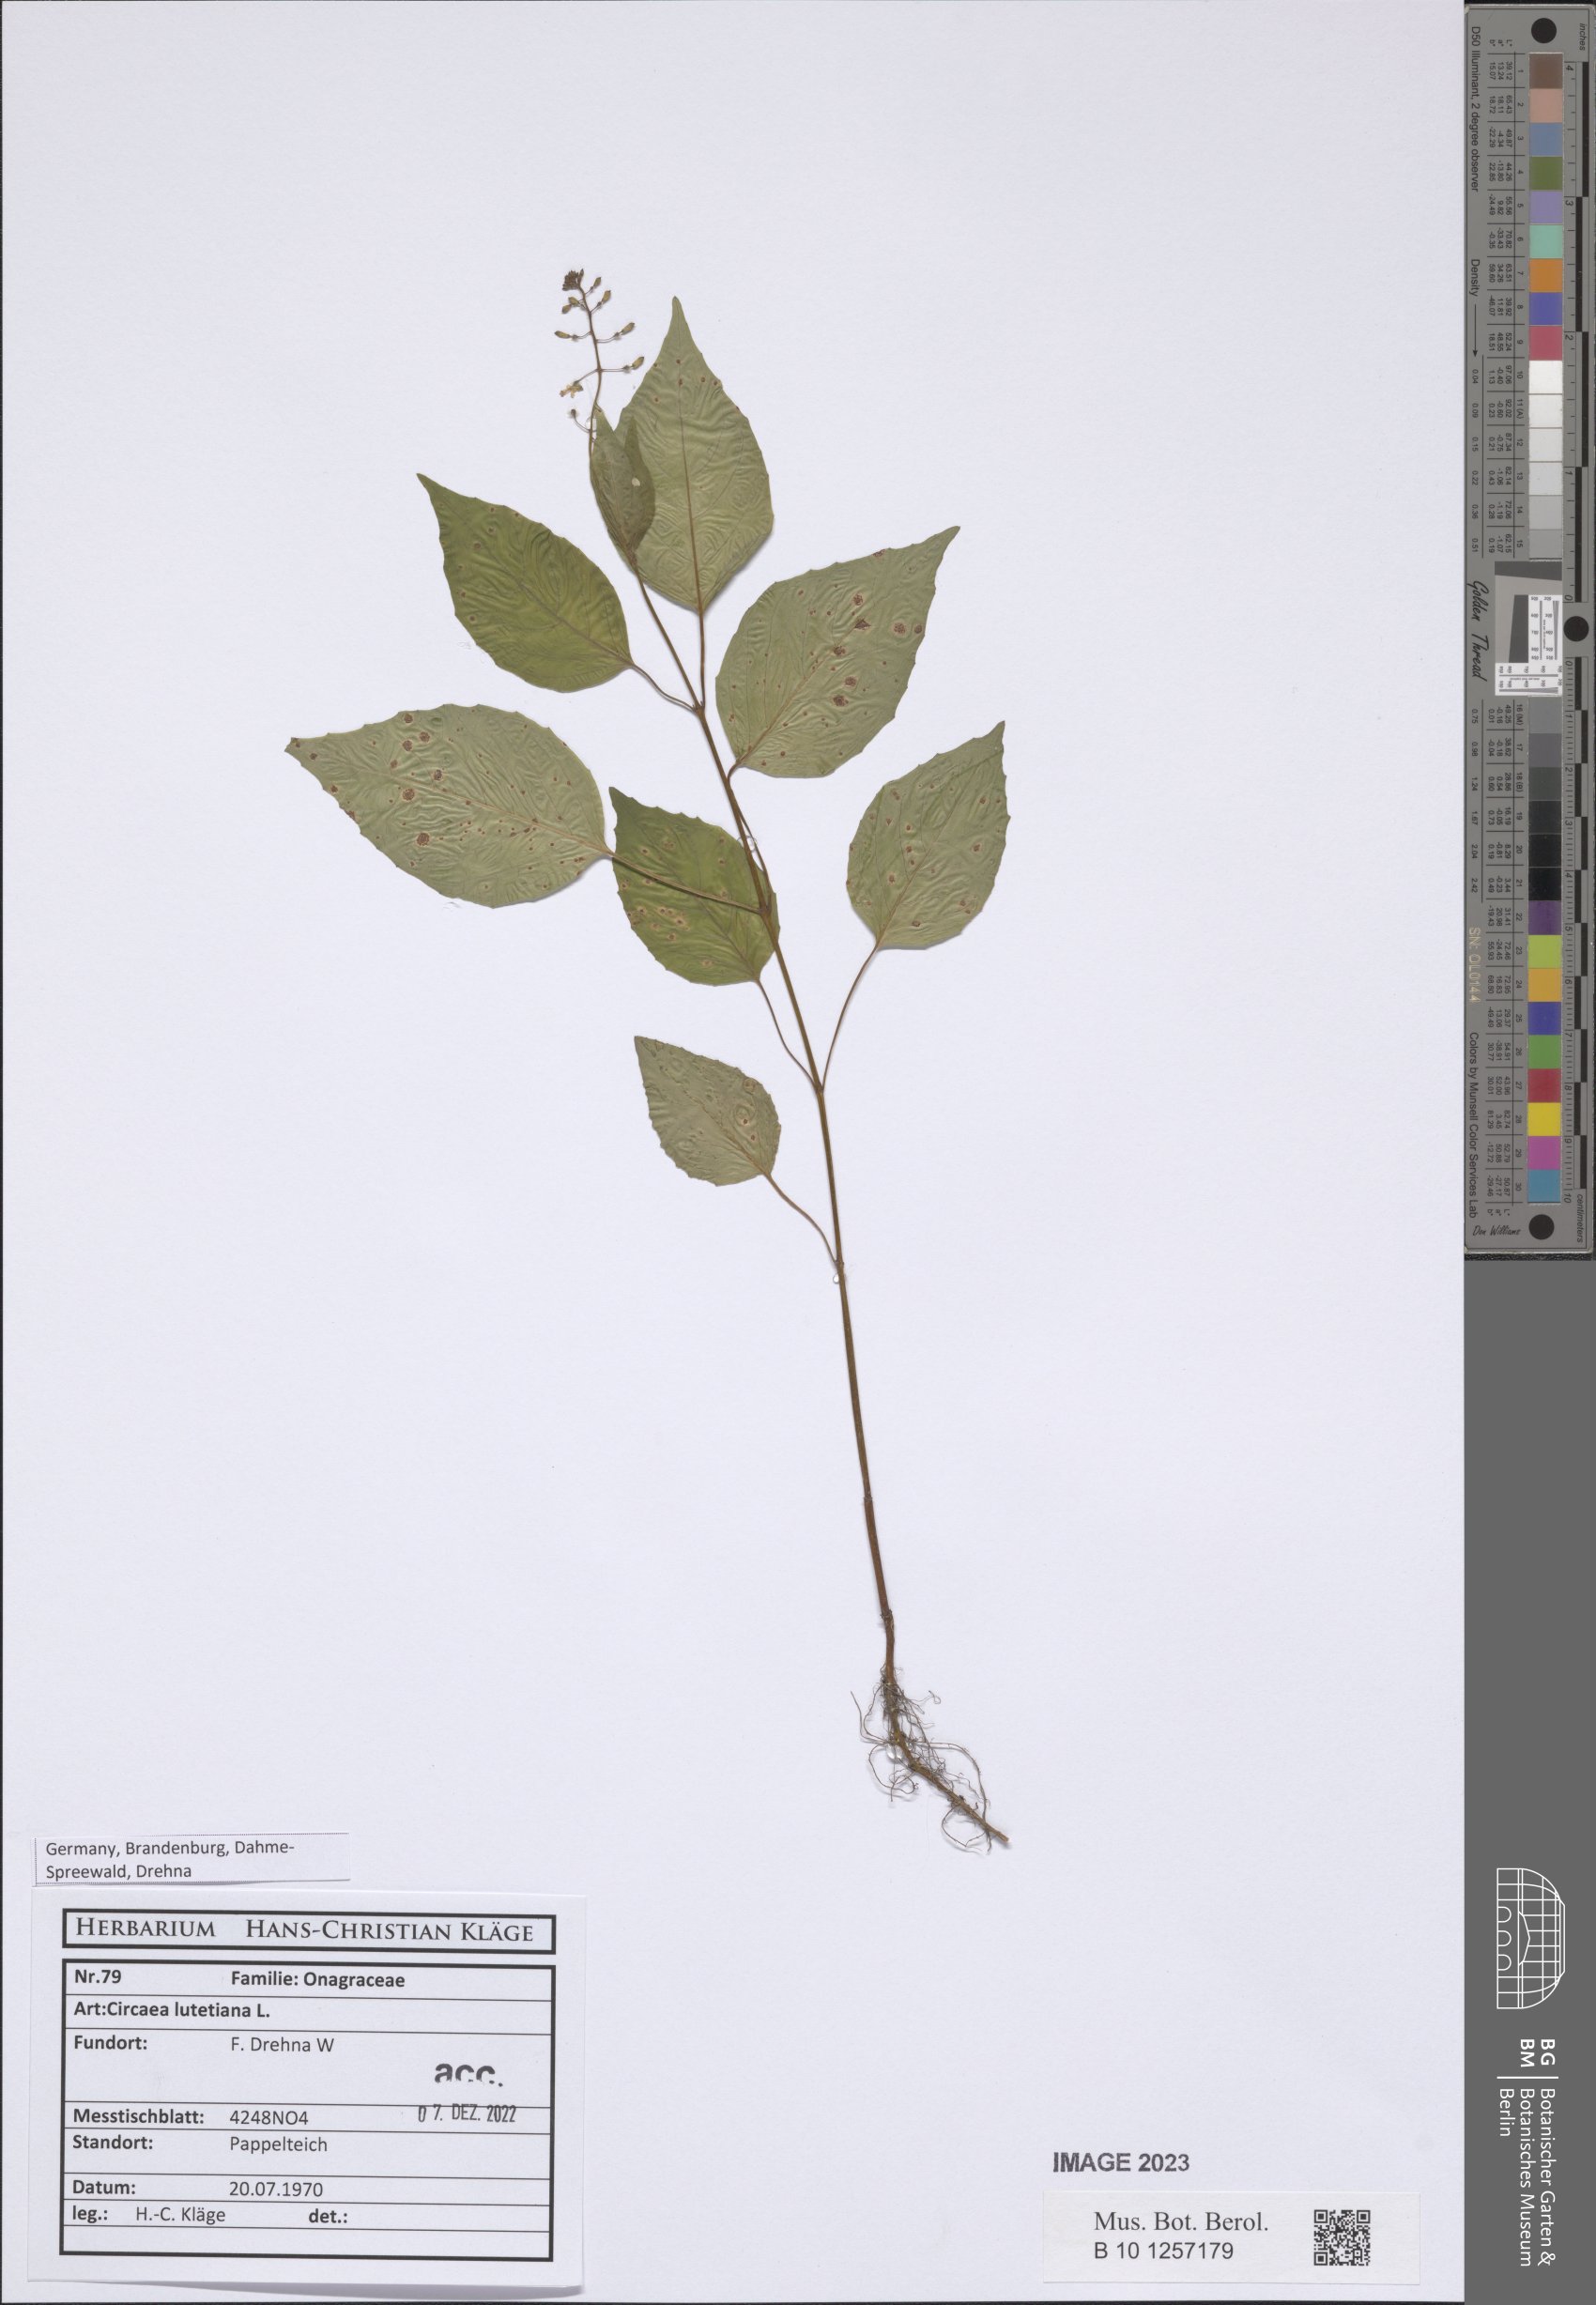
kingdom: Plantae
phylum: Tracheophyta
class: Magnoliopsida
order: Myrtales
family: Onagraceae
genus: Circaea
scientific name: Circaea lutetiana
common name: Enchanter's-nightshade
